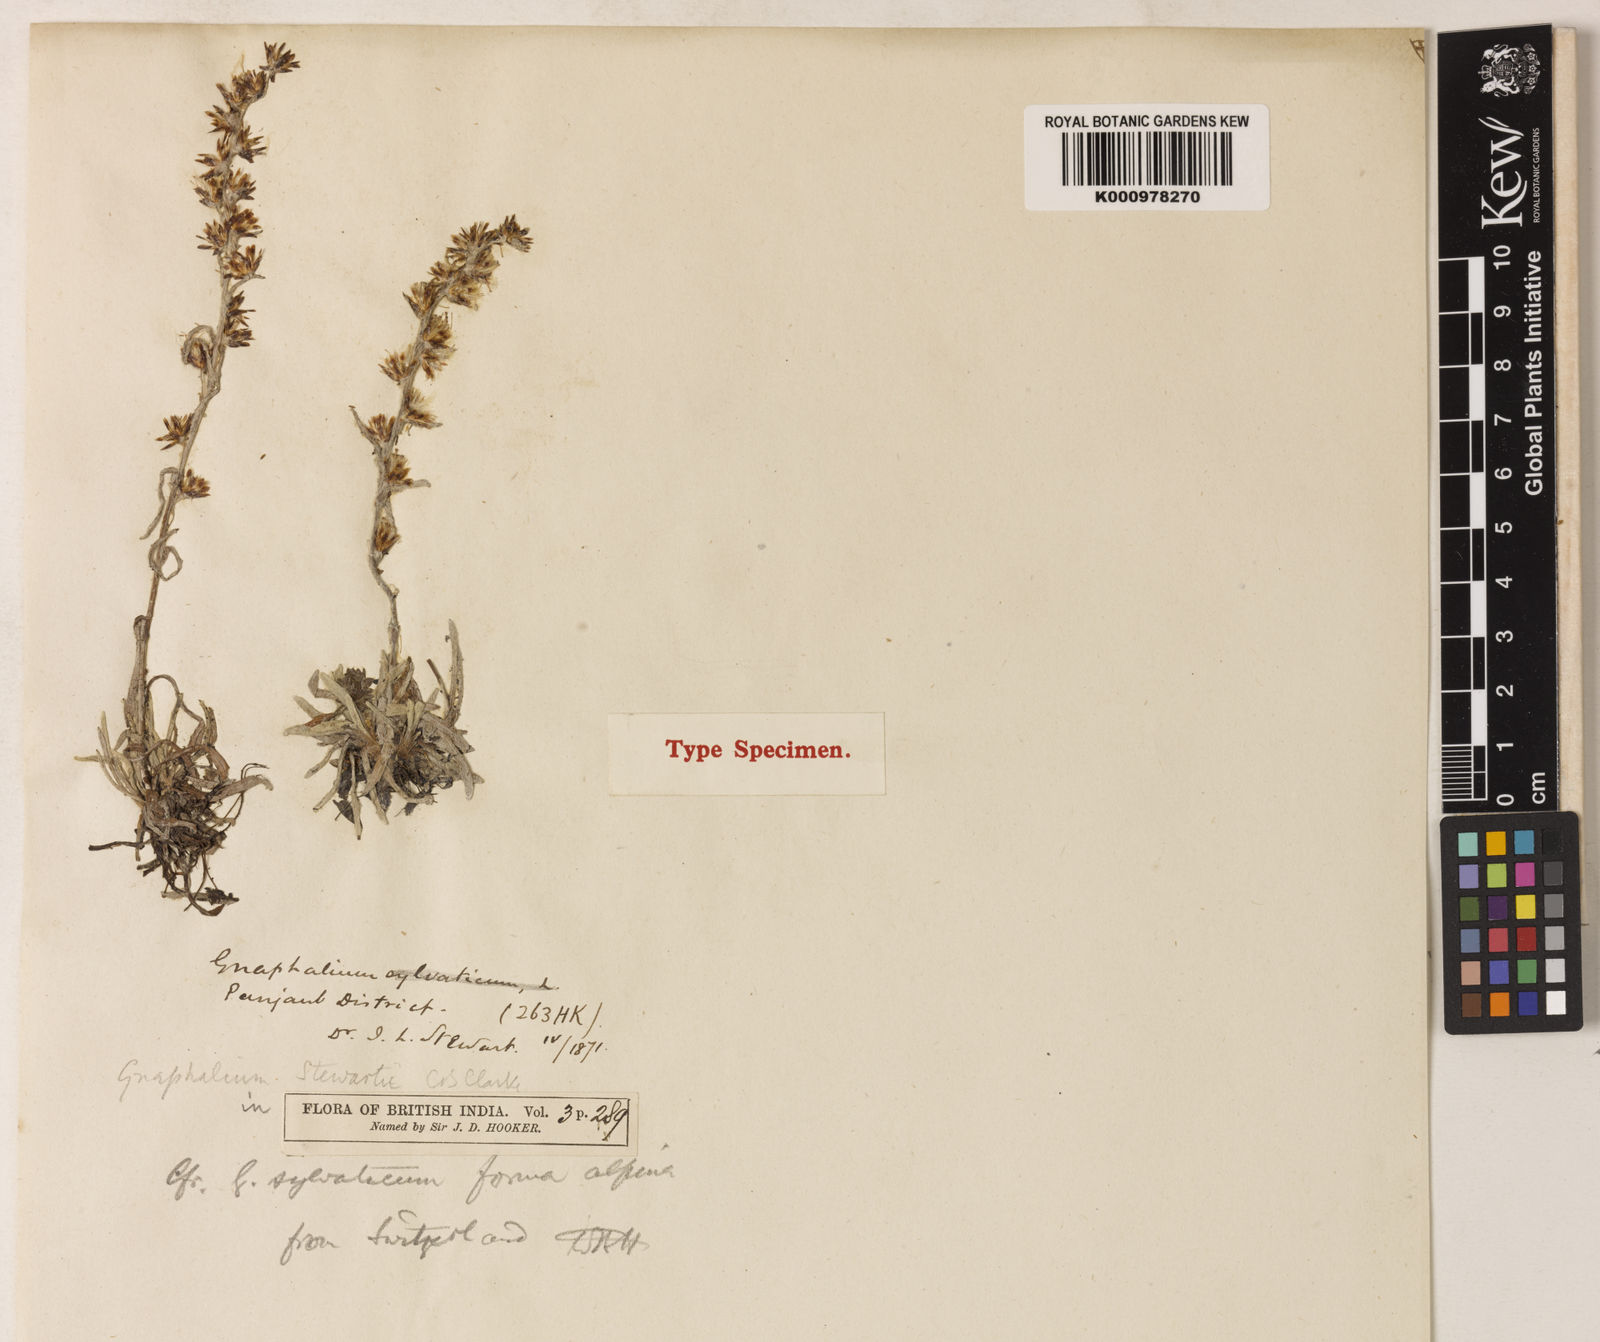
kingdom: Plantae
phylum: Tracheophyta
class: Magnoliopsida
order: Asterales
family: Asteraceae
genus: Gnaphalium
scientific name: Gnaphalium stewartii
